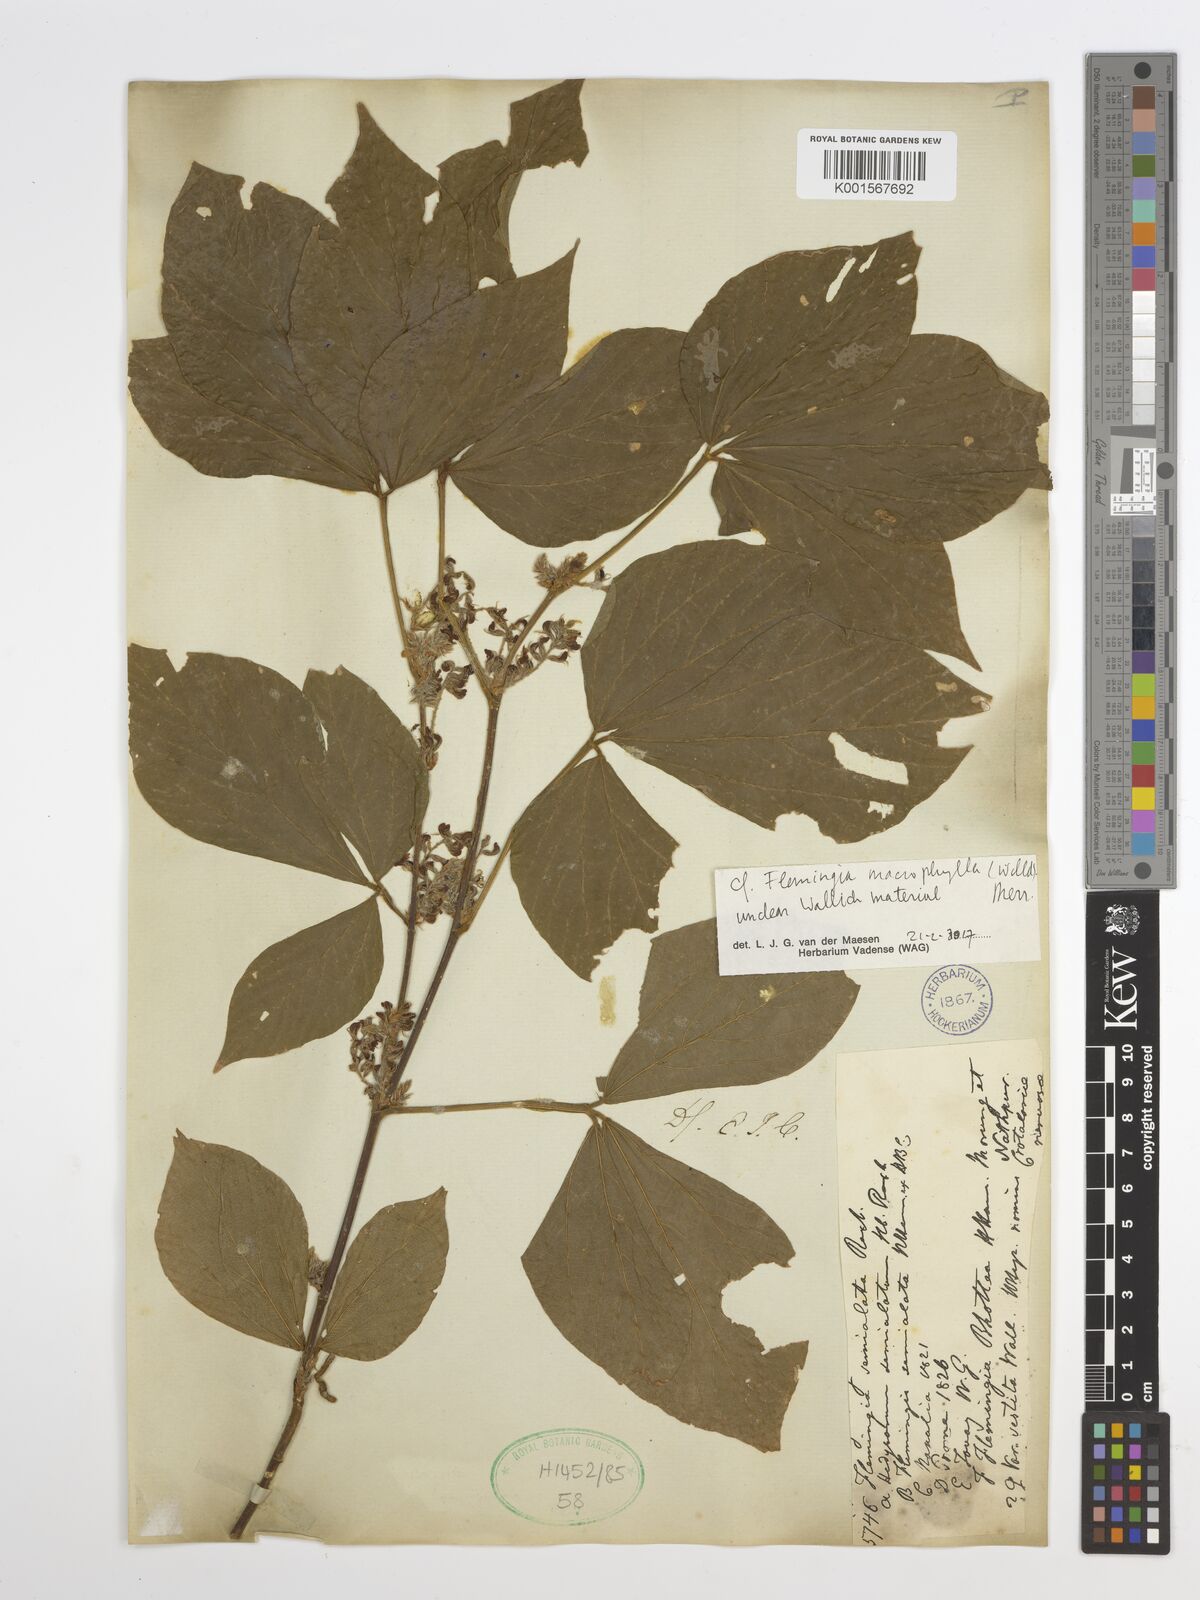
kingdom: Plantae
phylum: Tracheophyta
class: Magnoliopsida
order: Fabales
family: Fabaceae
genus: Flemingia
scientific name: Flemingia macrophylla
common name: Flemingia
